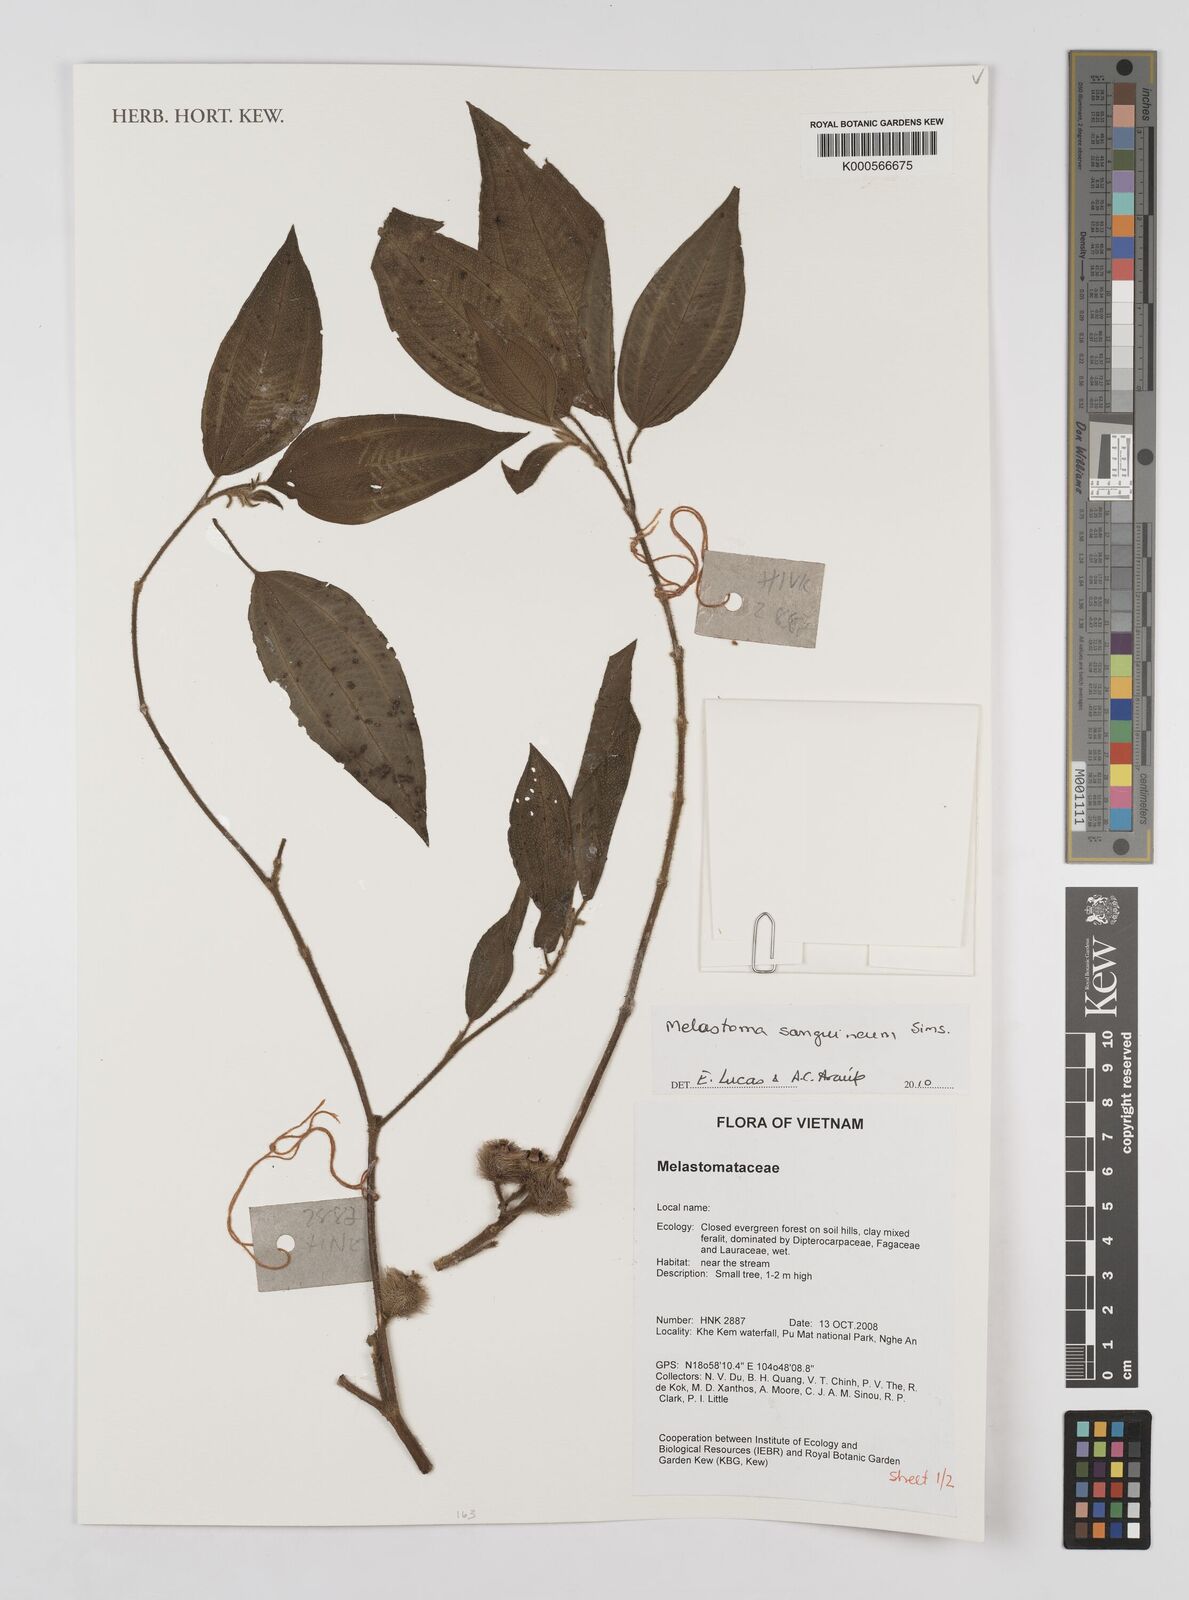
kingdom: Plantae
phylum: Tracheophyta
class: Magnoliopsida
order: Myrtales
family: Melastomataceae
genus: Melastoma
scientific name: Melastoma sanguineum
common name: Red melastome
